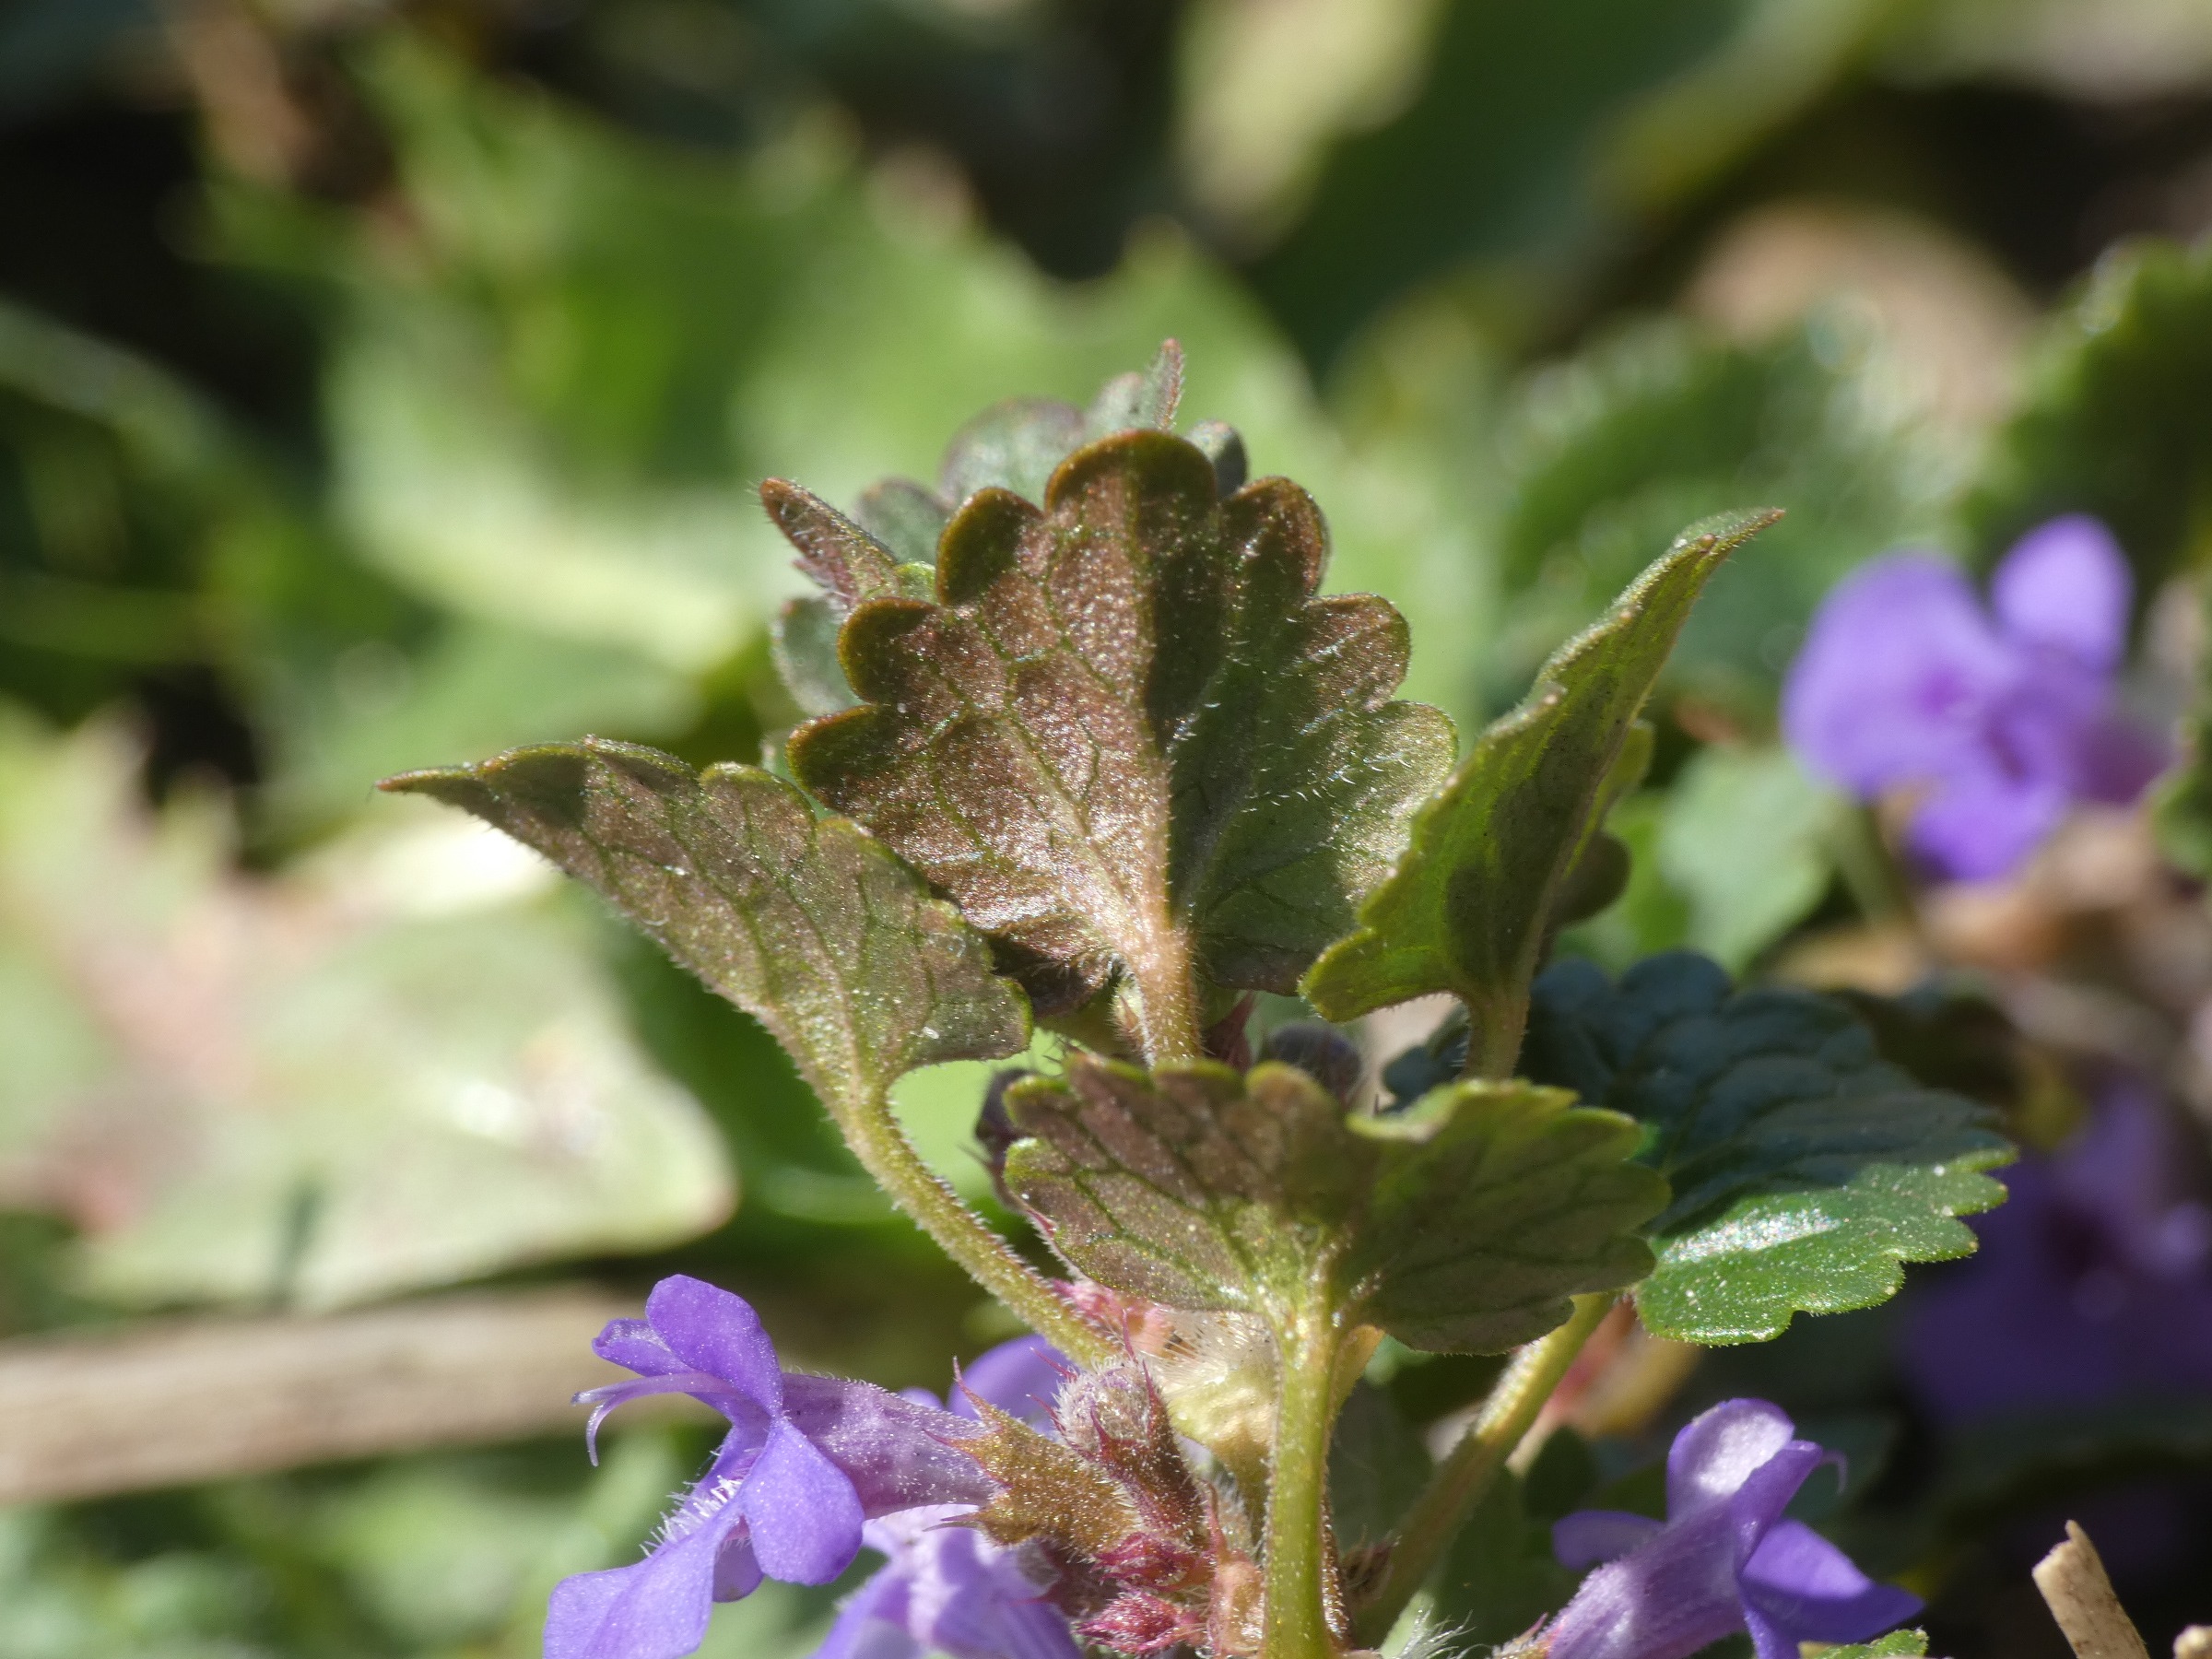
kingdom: Plantae
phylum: Tracheophyta
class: Magnoliopsida
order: Lamiales
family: Lamiaceae
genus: Glechoma
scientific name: Glechoma hederacea
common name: Korsknap
